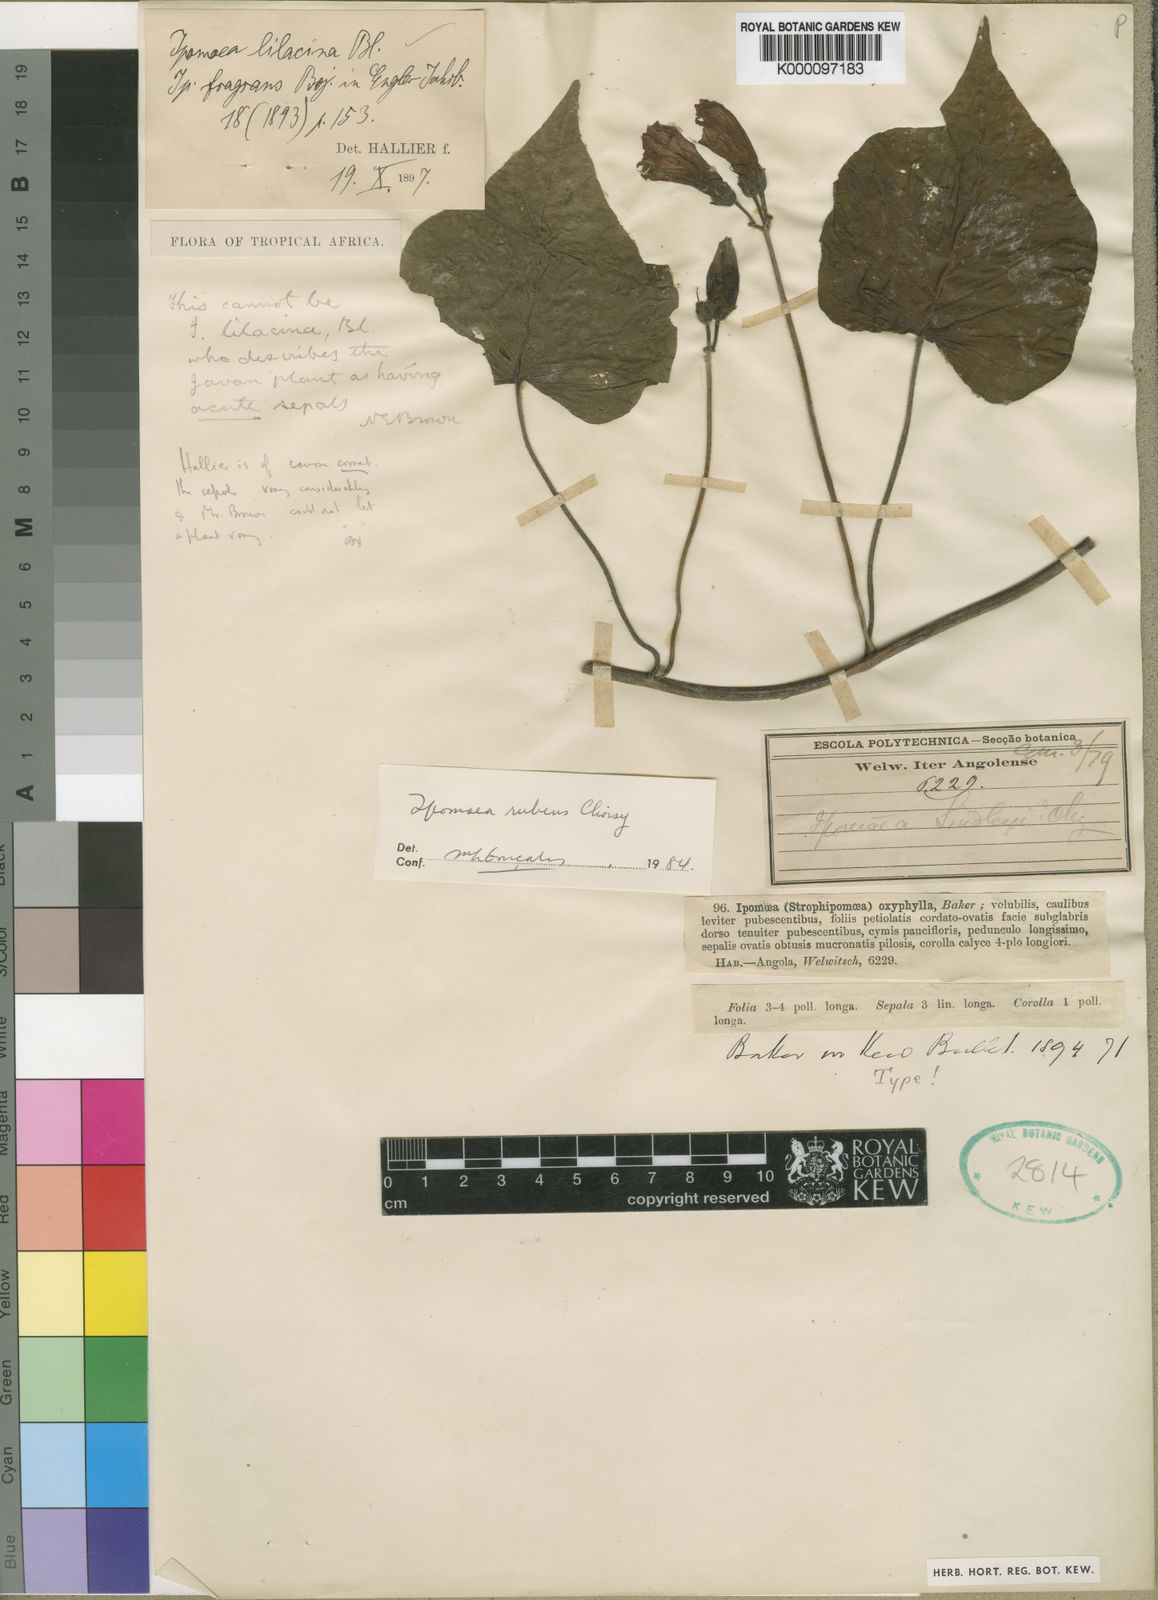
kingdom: Plantae
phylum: Tracheophyta
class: Magnoliopsida
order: Solanales
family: Convolvulaceae
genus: Ipomoea
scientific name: Ipomoea rubens
